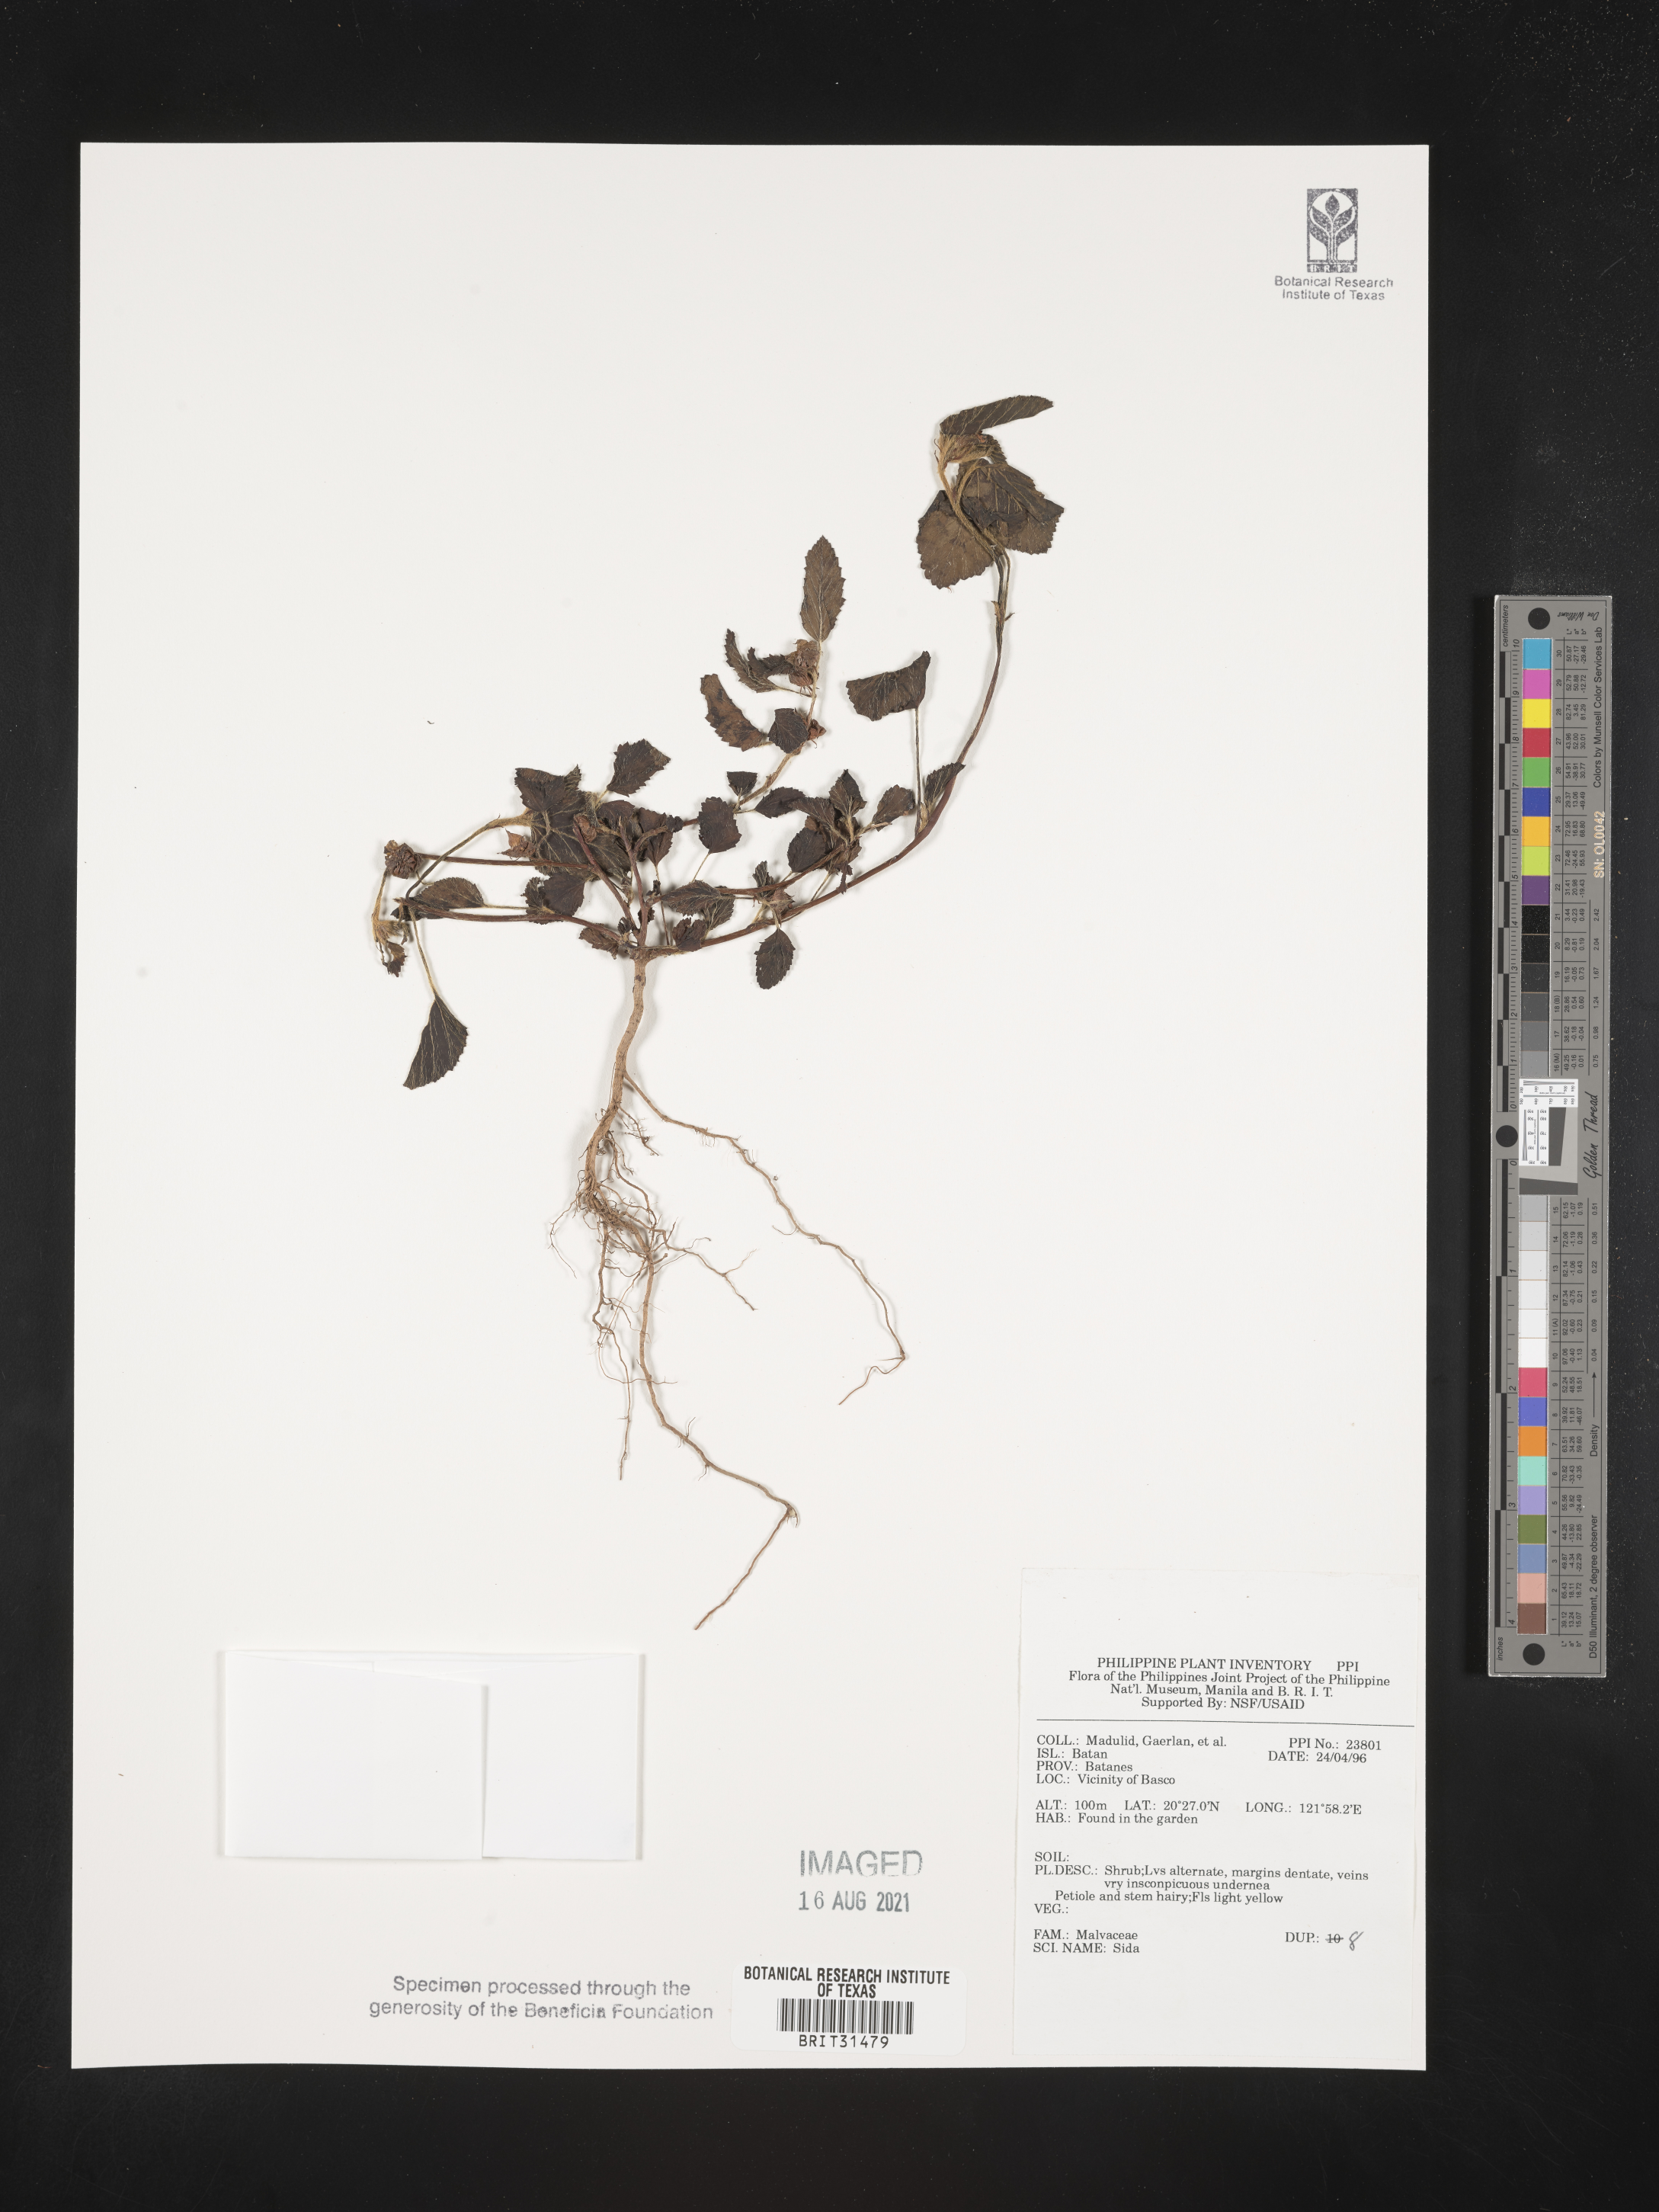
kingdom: Plantae
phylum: Tracheophyta
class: Magnoliopsida
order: Malvales
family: Malvaceae
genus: Sida
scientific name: Sida
